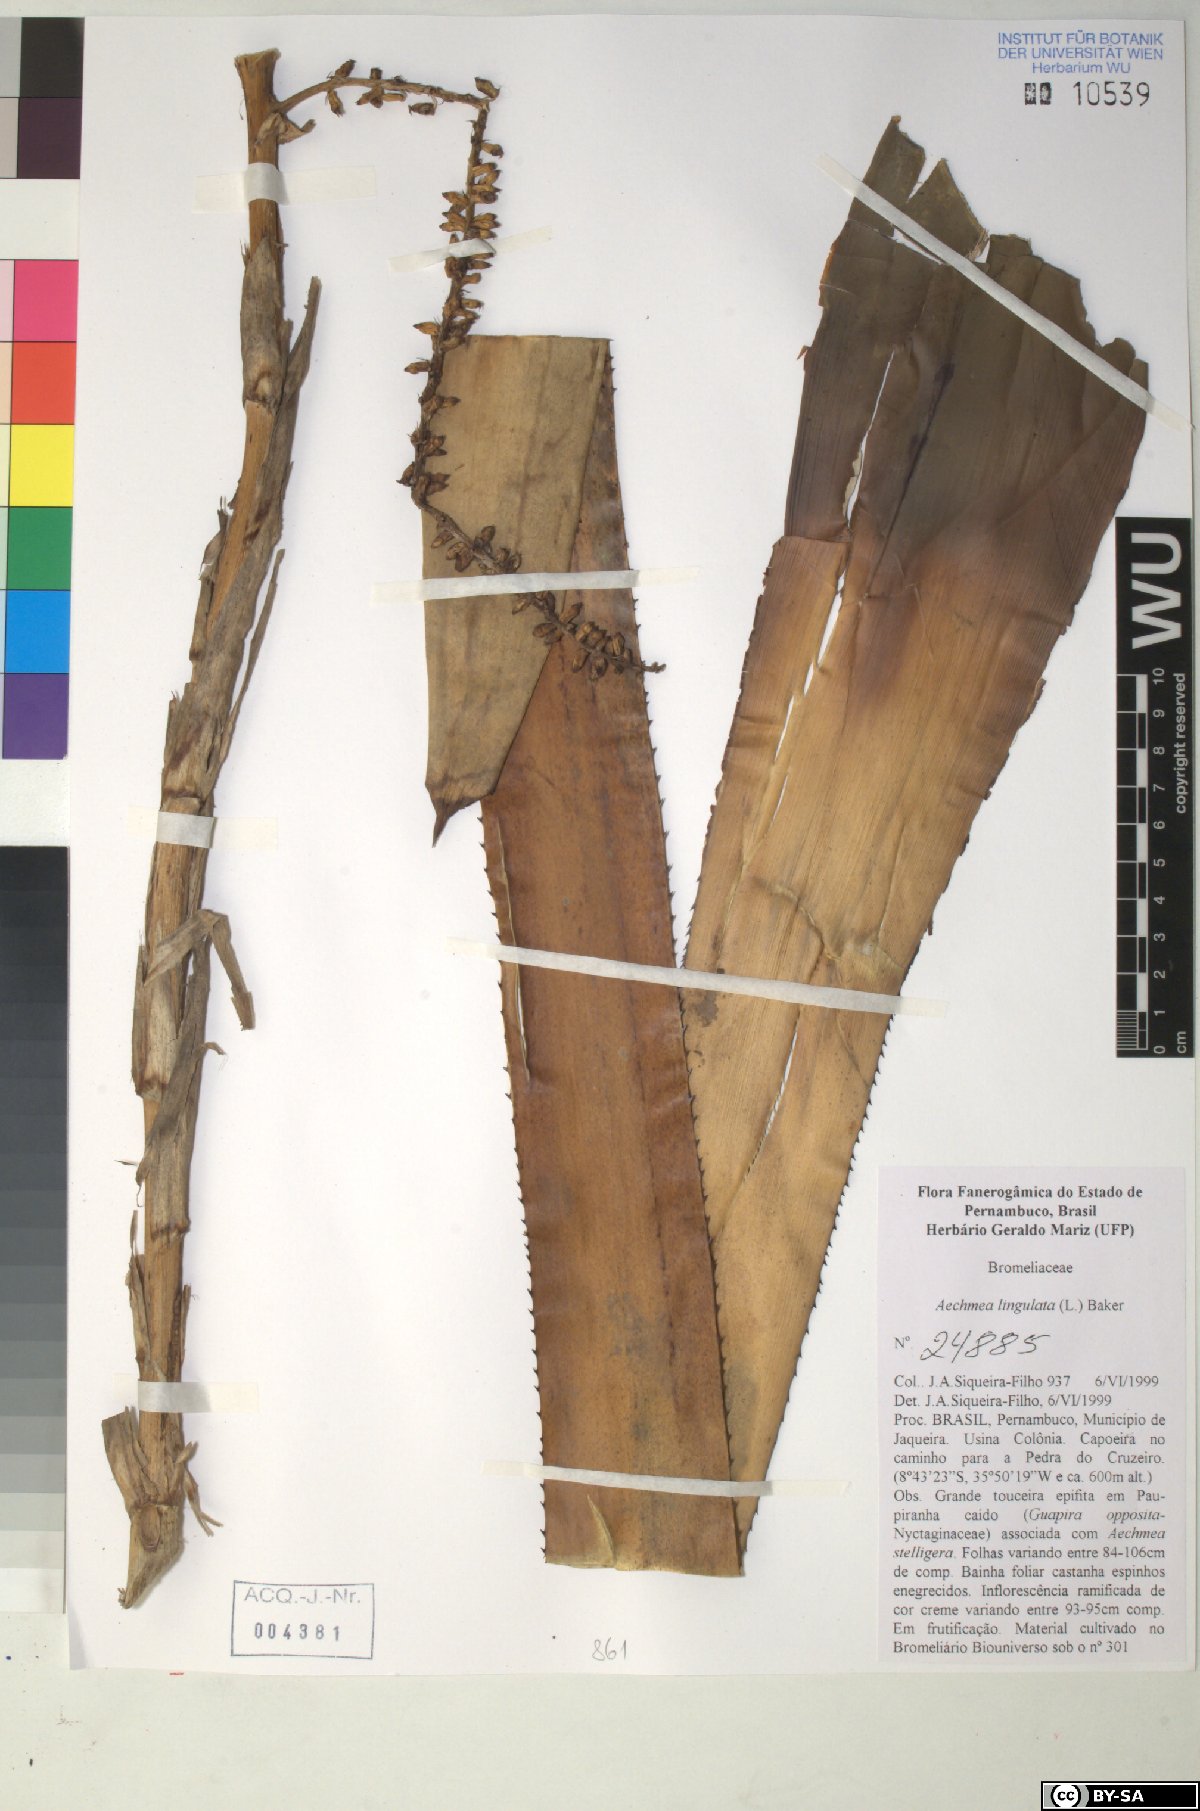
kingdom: Plantae
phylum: Tracheophyta
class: Liliopsida
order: Poales
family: Bromeliaceae
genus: Wittmackia
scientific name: Wittmackia lingulata
